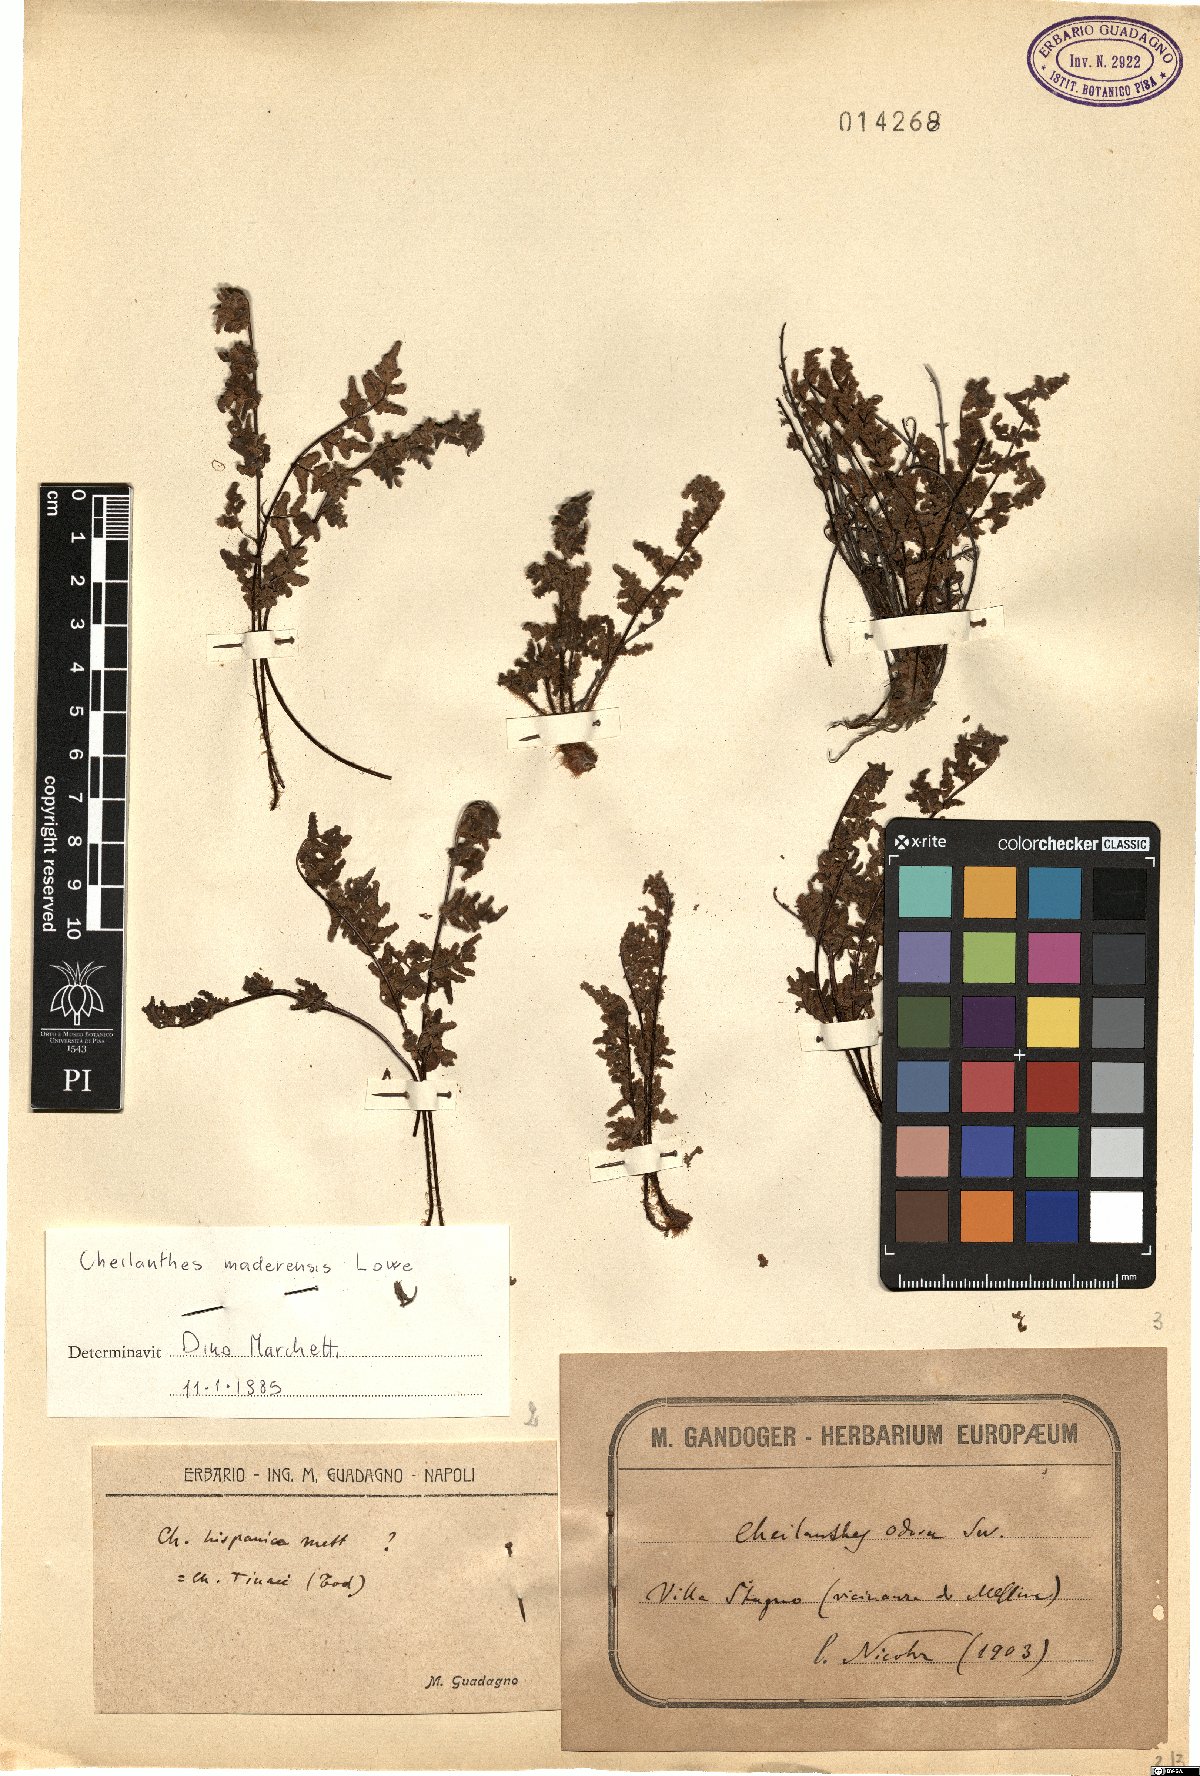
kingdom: Plantae
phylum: Tracheophyta
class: Polypodiopsida
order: Polypodiales
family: Pteridaceae
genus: Oeosporangium
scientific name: Oeosporangium pteridioides
